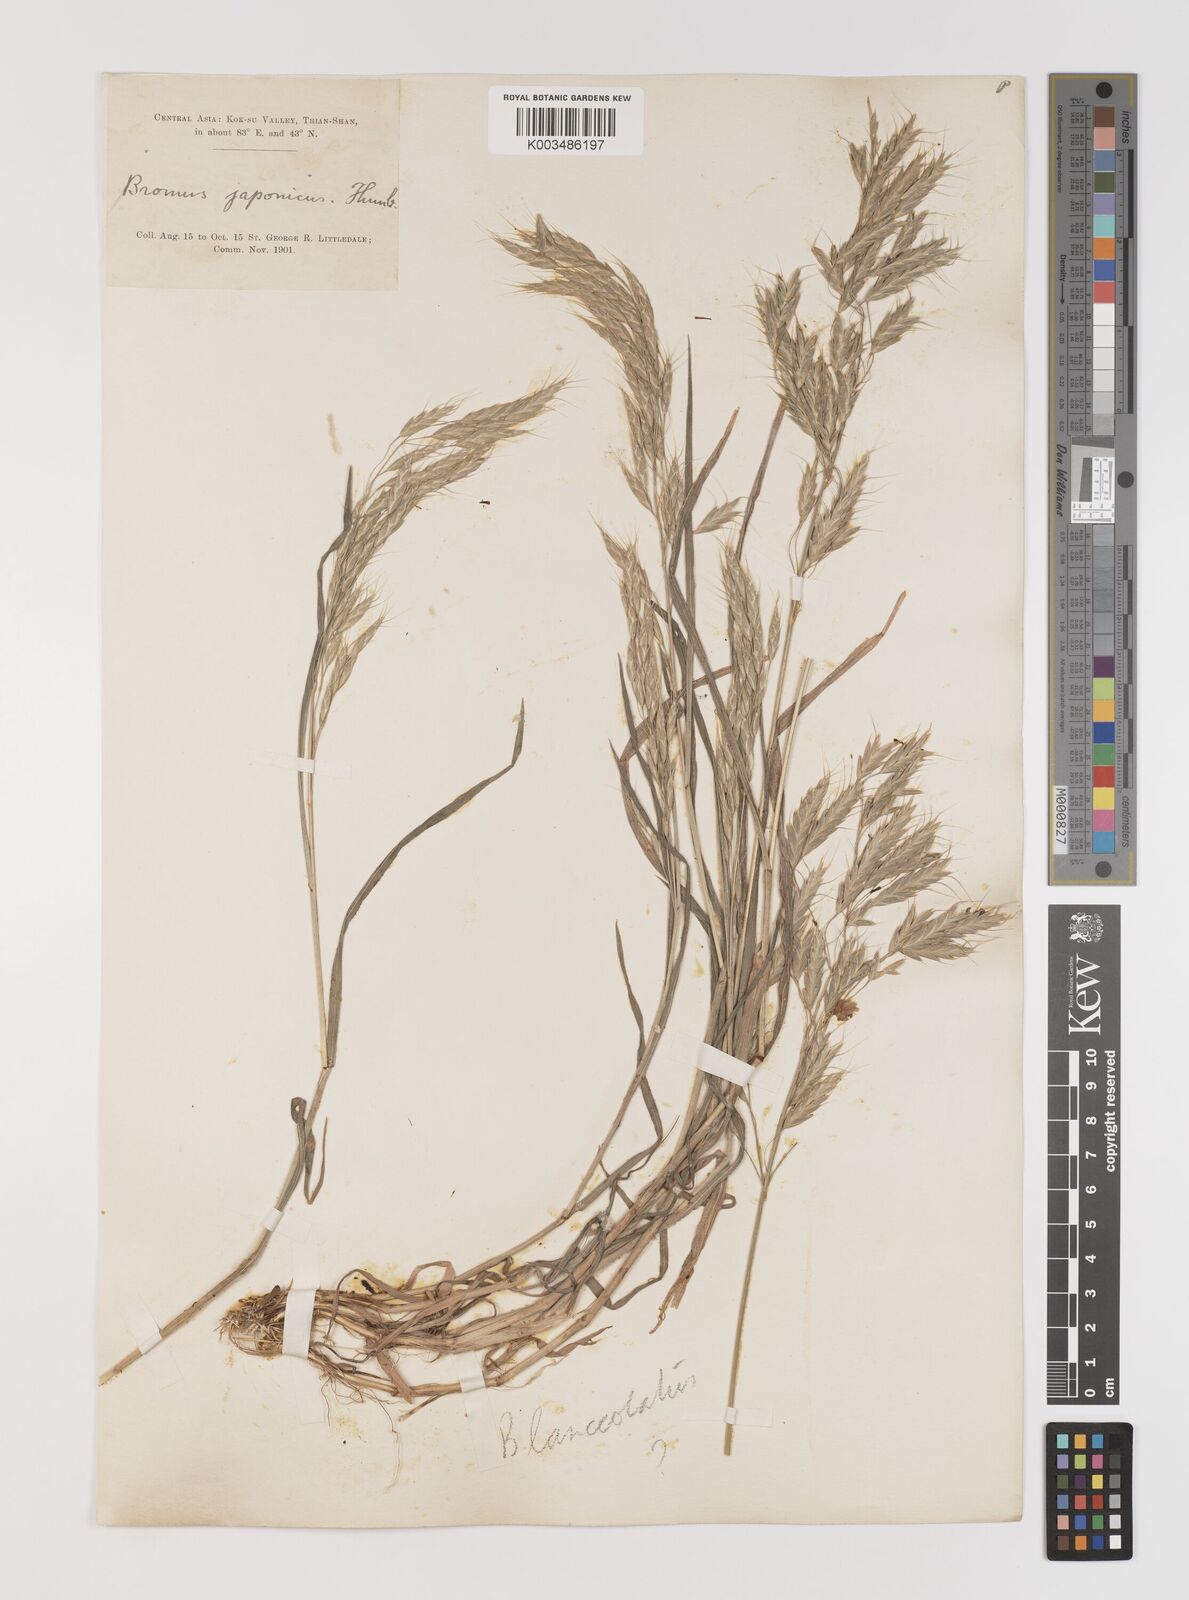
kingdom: Plantae
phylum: Tracheophyta
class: Liliopsida
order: Poales
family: Poaceae
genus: Bromus
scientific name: Bromus oxyodon
